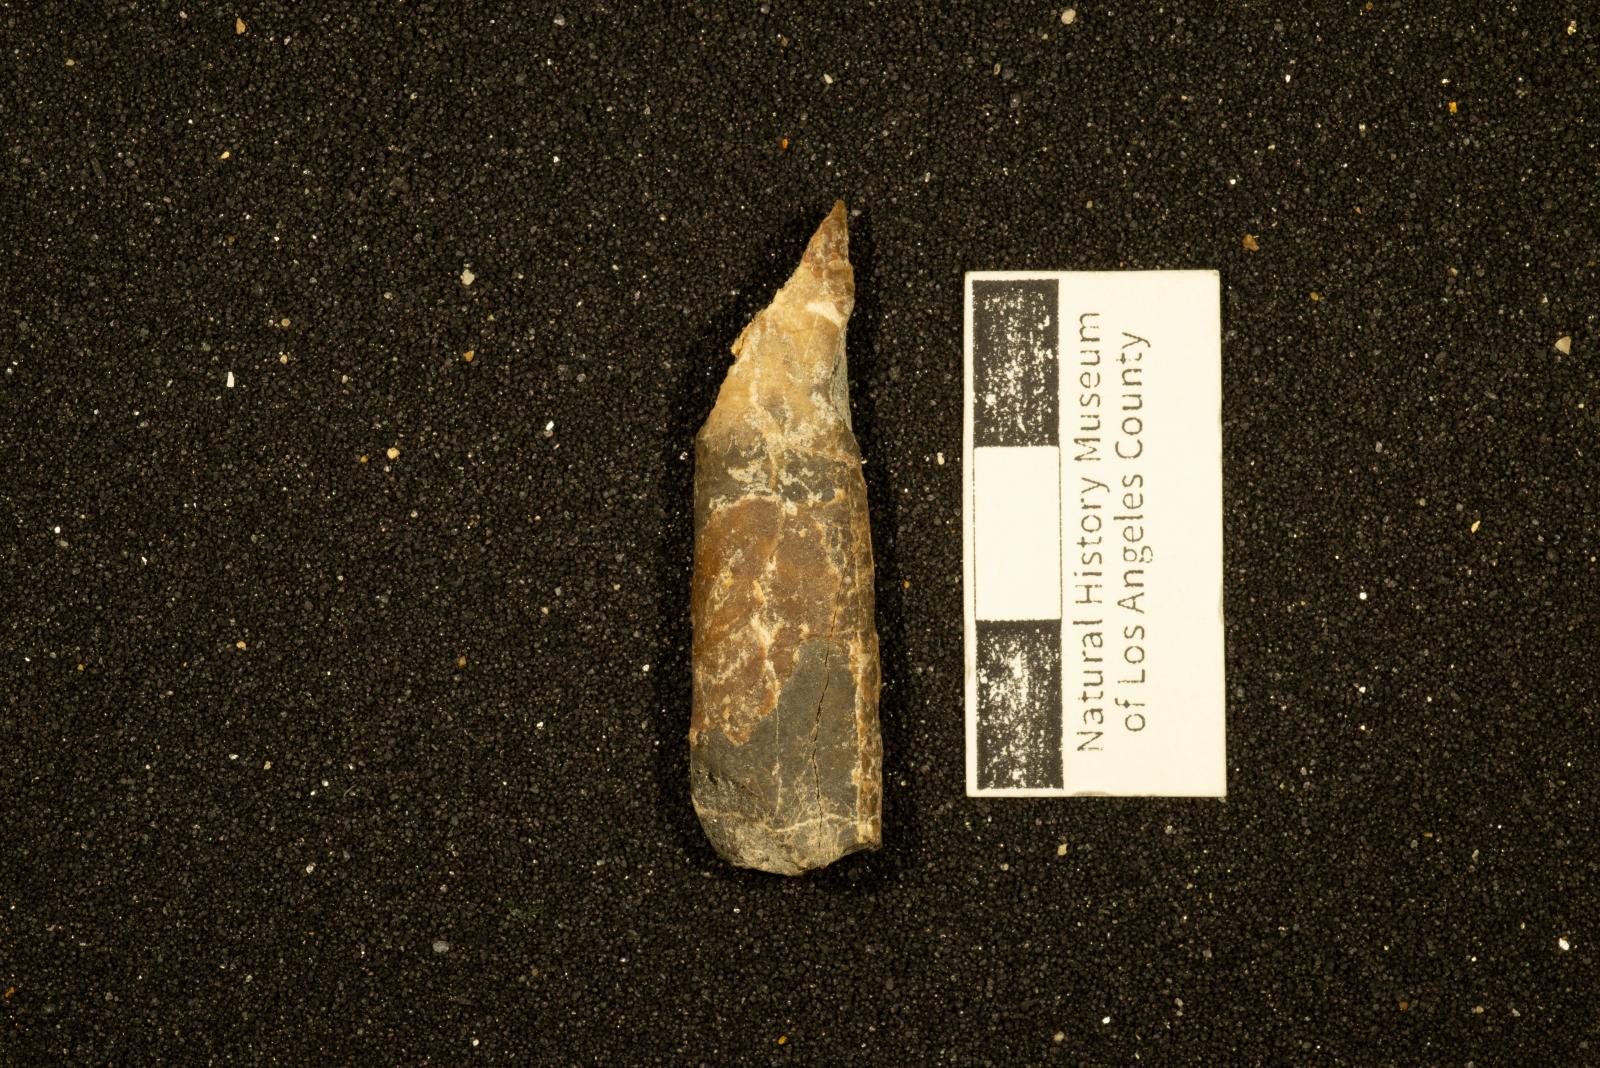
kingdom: Animalia
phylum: Mollusca
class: Cephalopoda
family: Baculitidae
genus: Sciponoceras
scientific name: Sciponoceras
